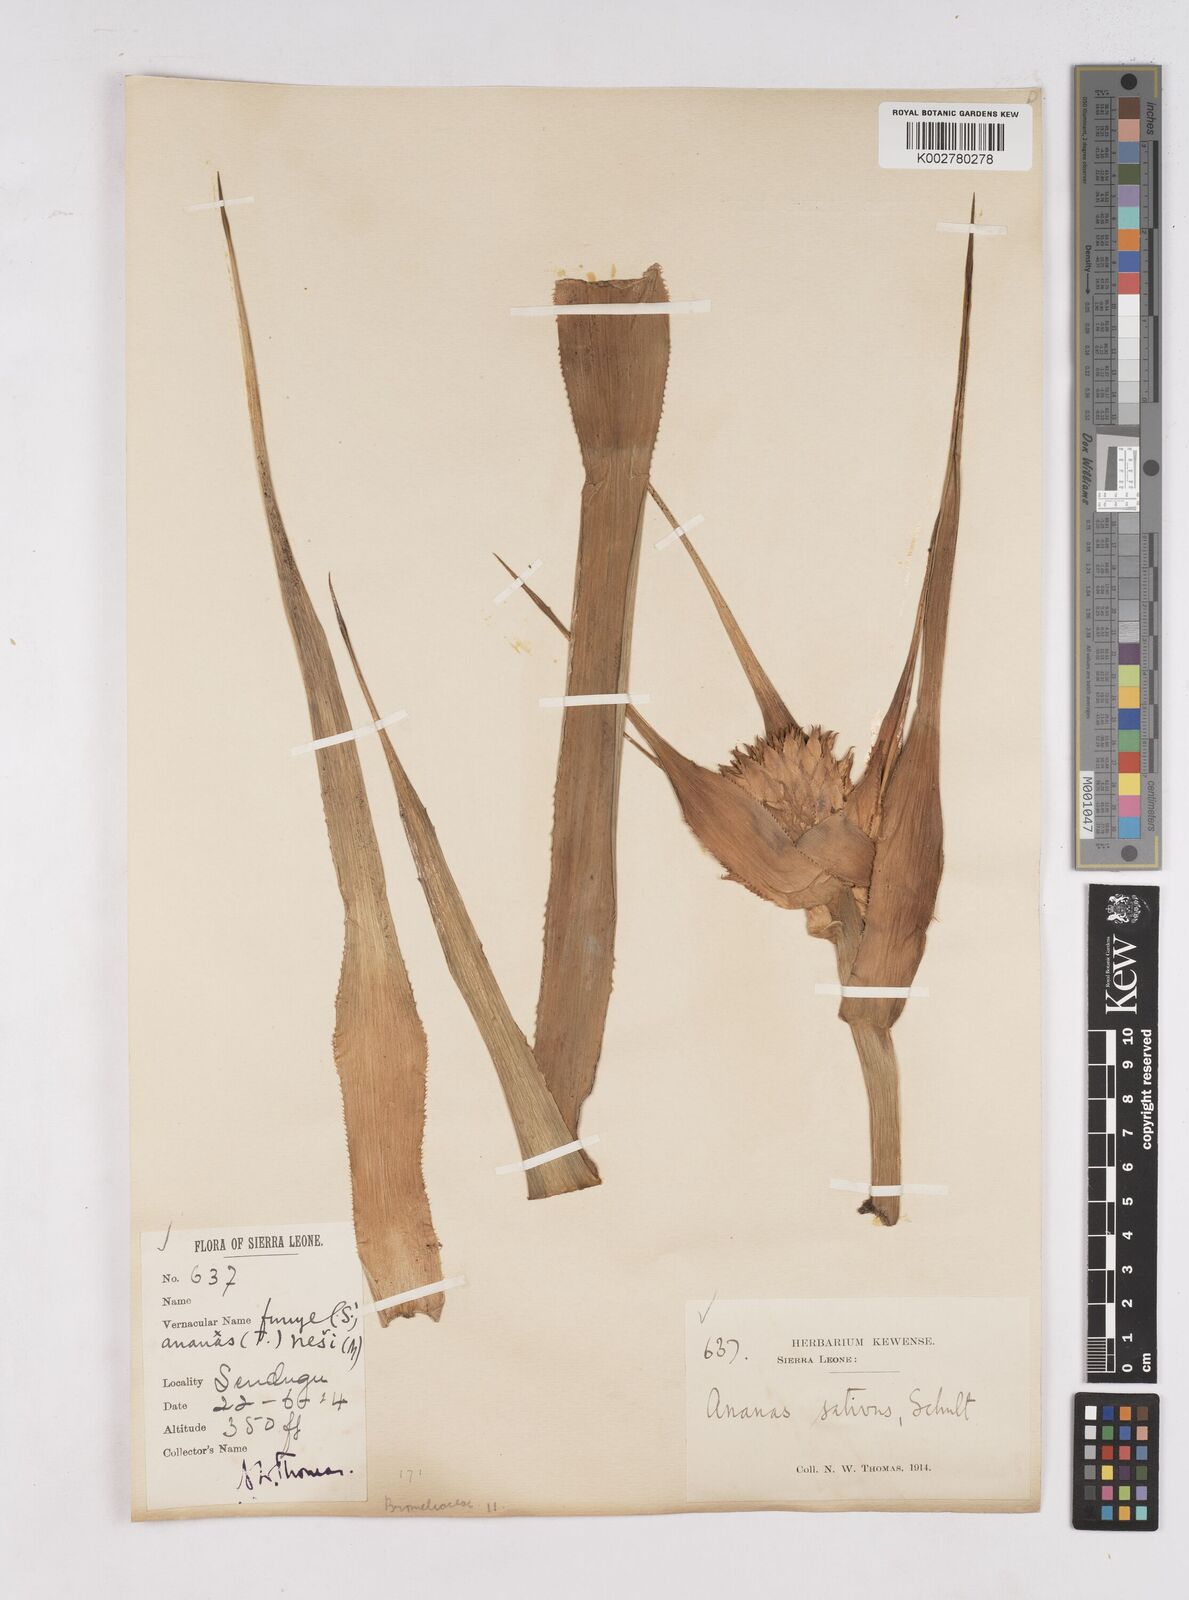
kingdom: Plantae
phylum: Tracheophyta
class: Liliopsida
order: Poales
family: Bromeliaceae
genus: Ananas
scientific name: Ananas comosus
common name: Pineapple
